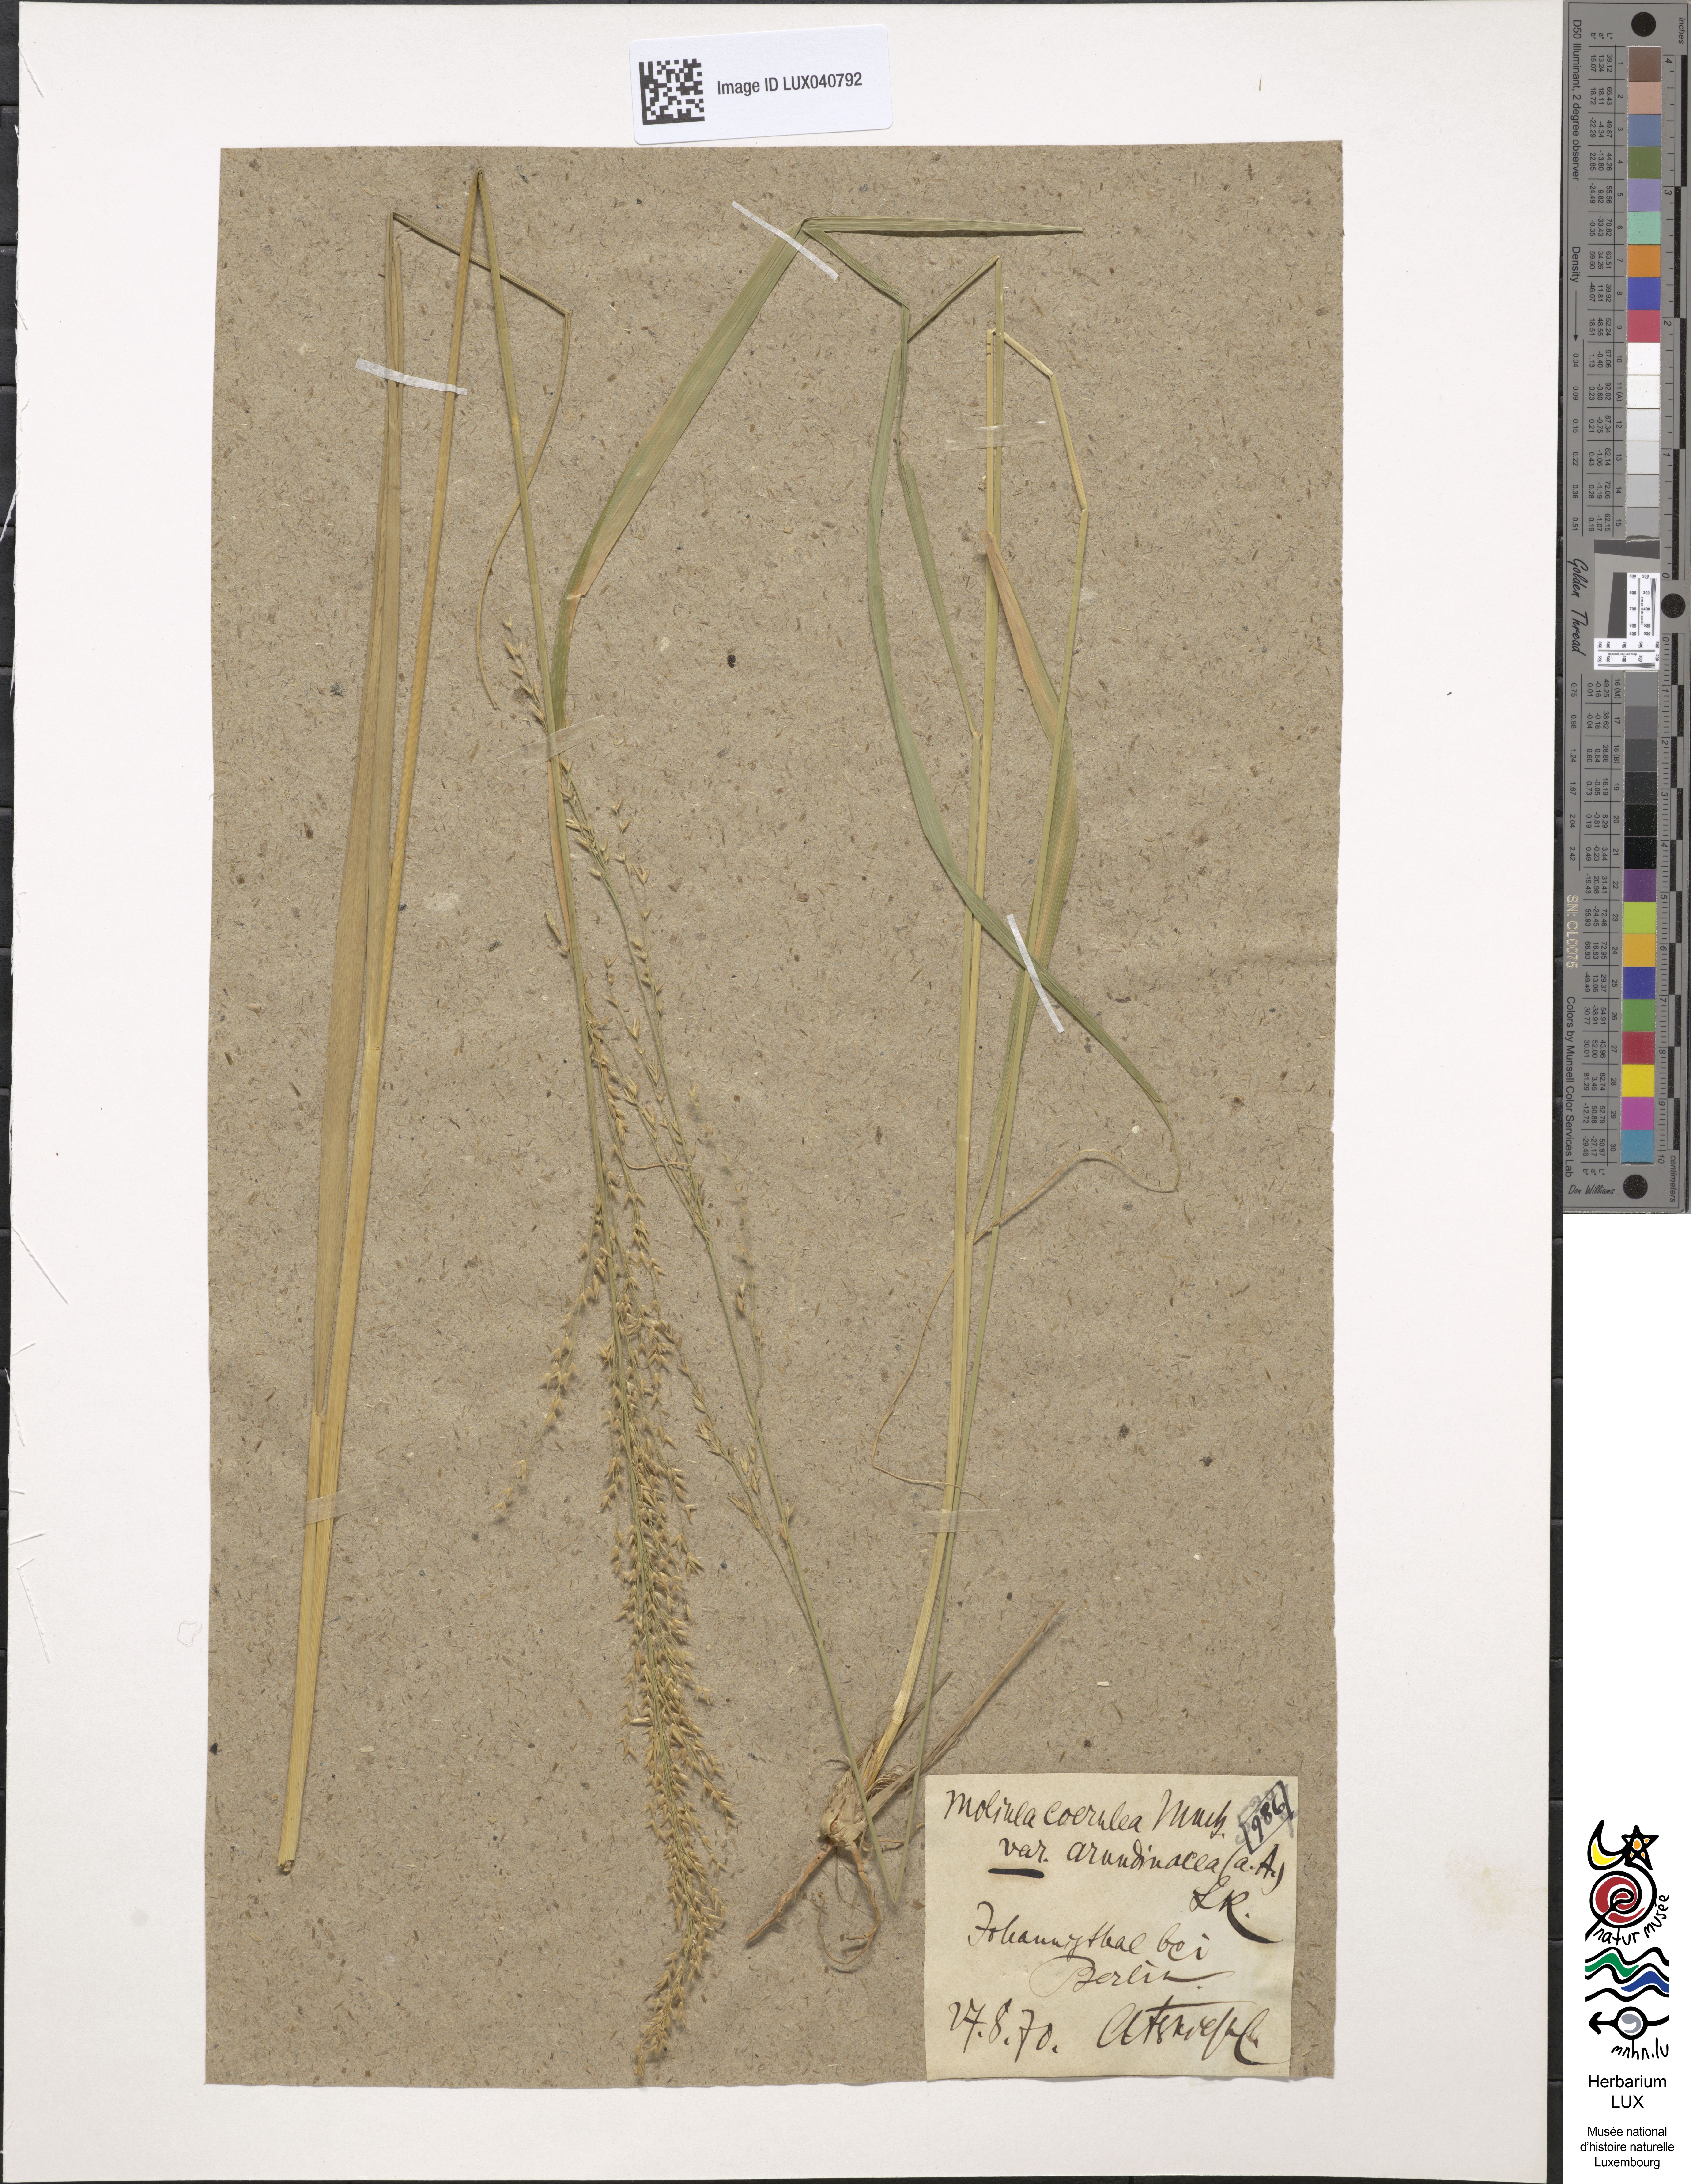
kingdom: Plantae
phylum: Tracheophyta
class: Liliopsida
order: Poales
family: Poaceae
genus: Molinia
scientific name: Molinia arundinacea
